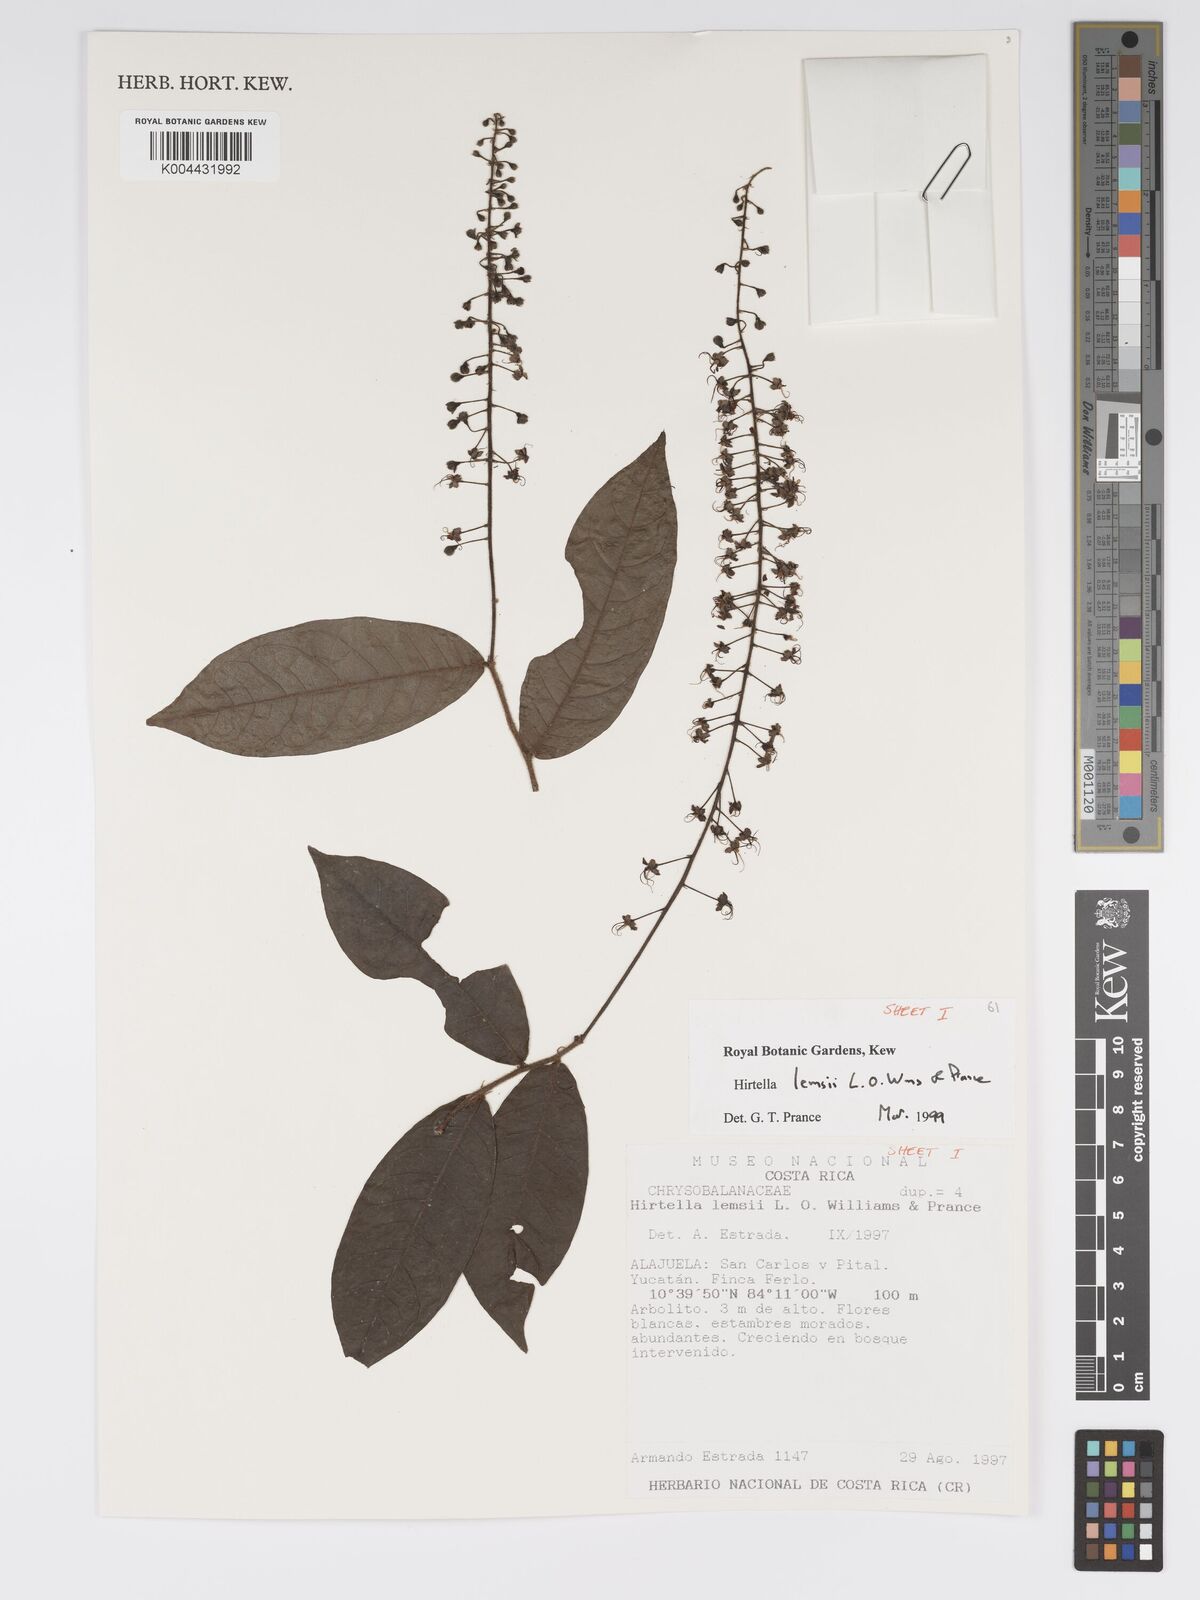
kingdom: Plantae
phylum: Tracheophyta
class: Magnoliopsida
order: Malpighiales
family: Chrysobalanaceae
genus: Hirtella
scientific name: Hirtella lemsii
